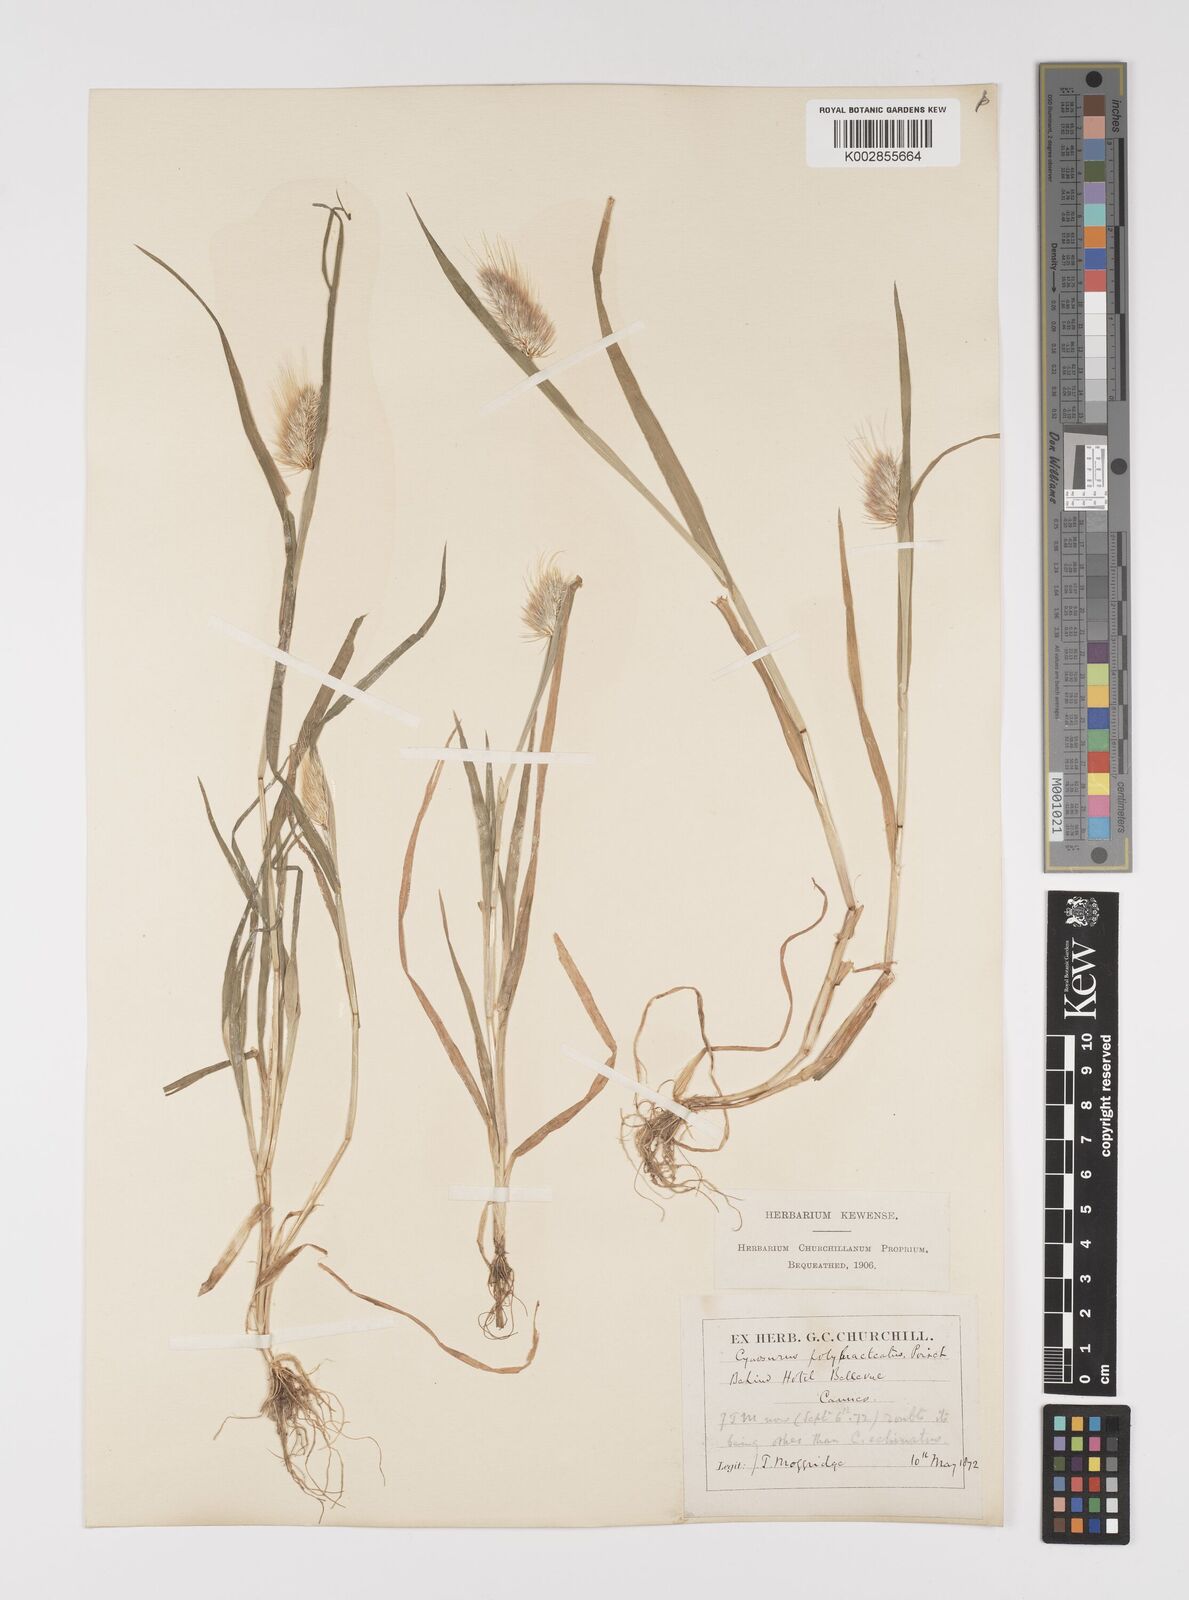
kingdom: Plantae
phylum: Tracheophyta
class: Liliopsida
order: Poales
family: Poaceae
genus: Cynosurus
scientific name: Cynosurus echinatus
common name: Rough dog's-tail
